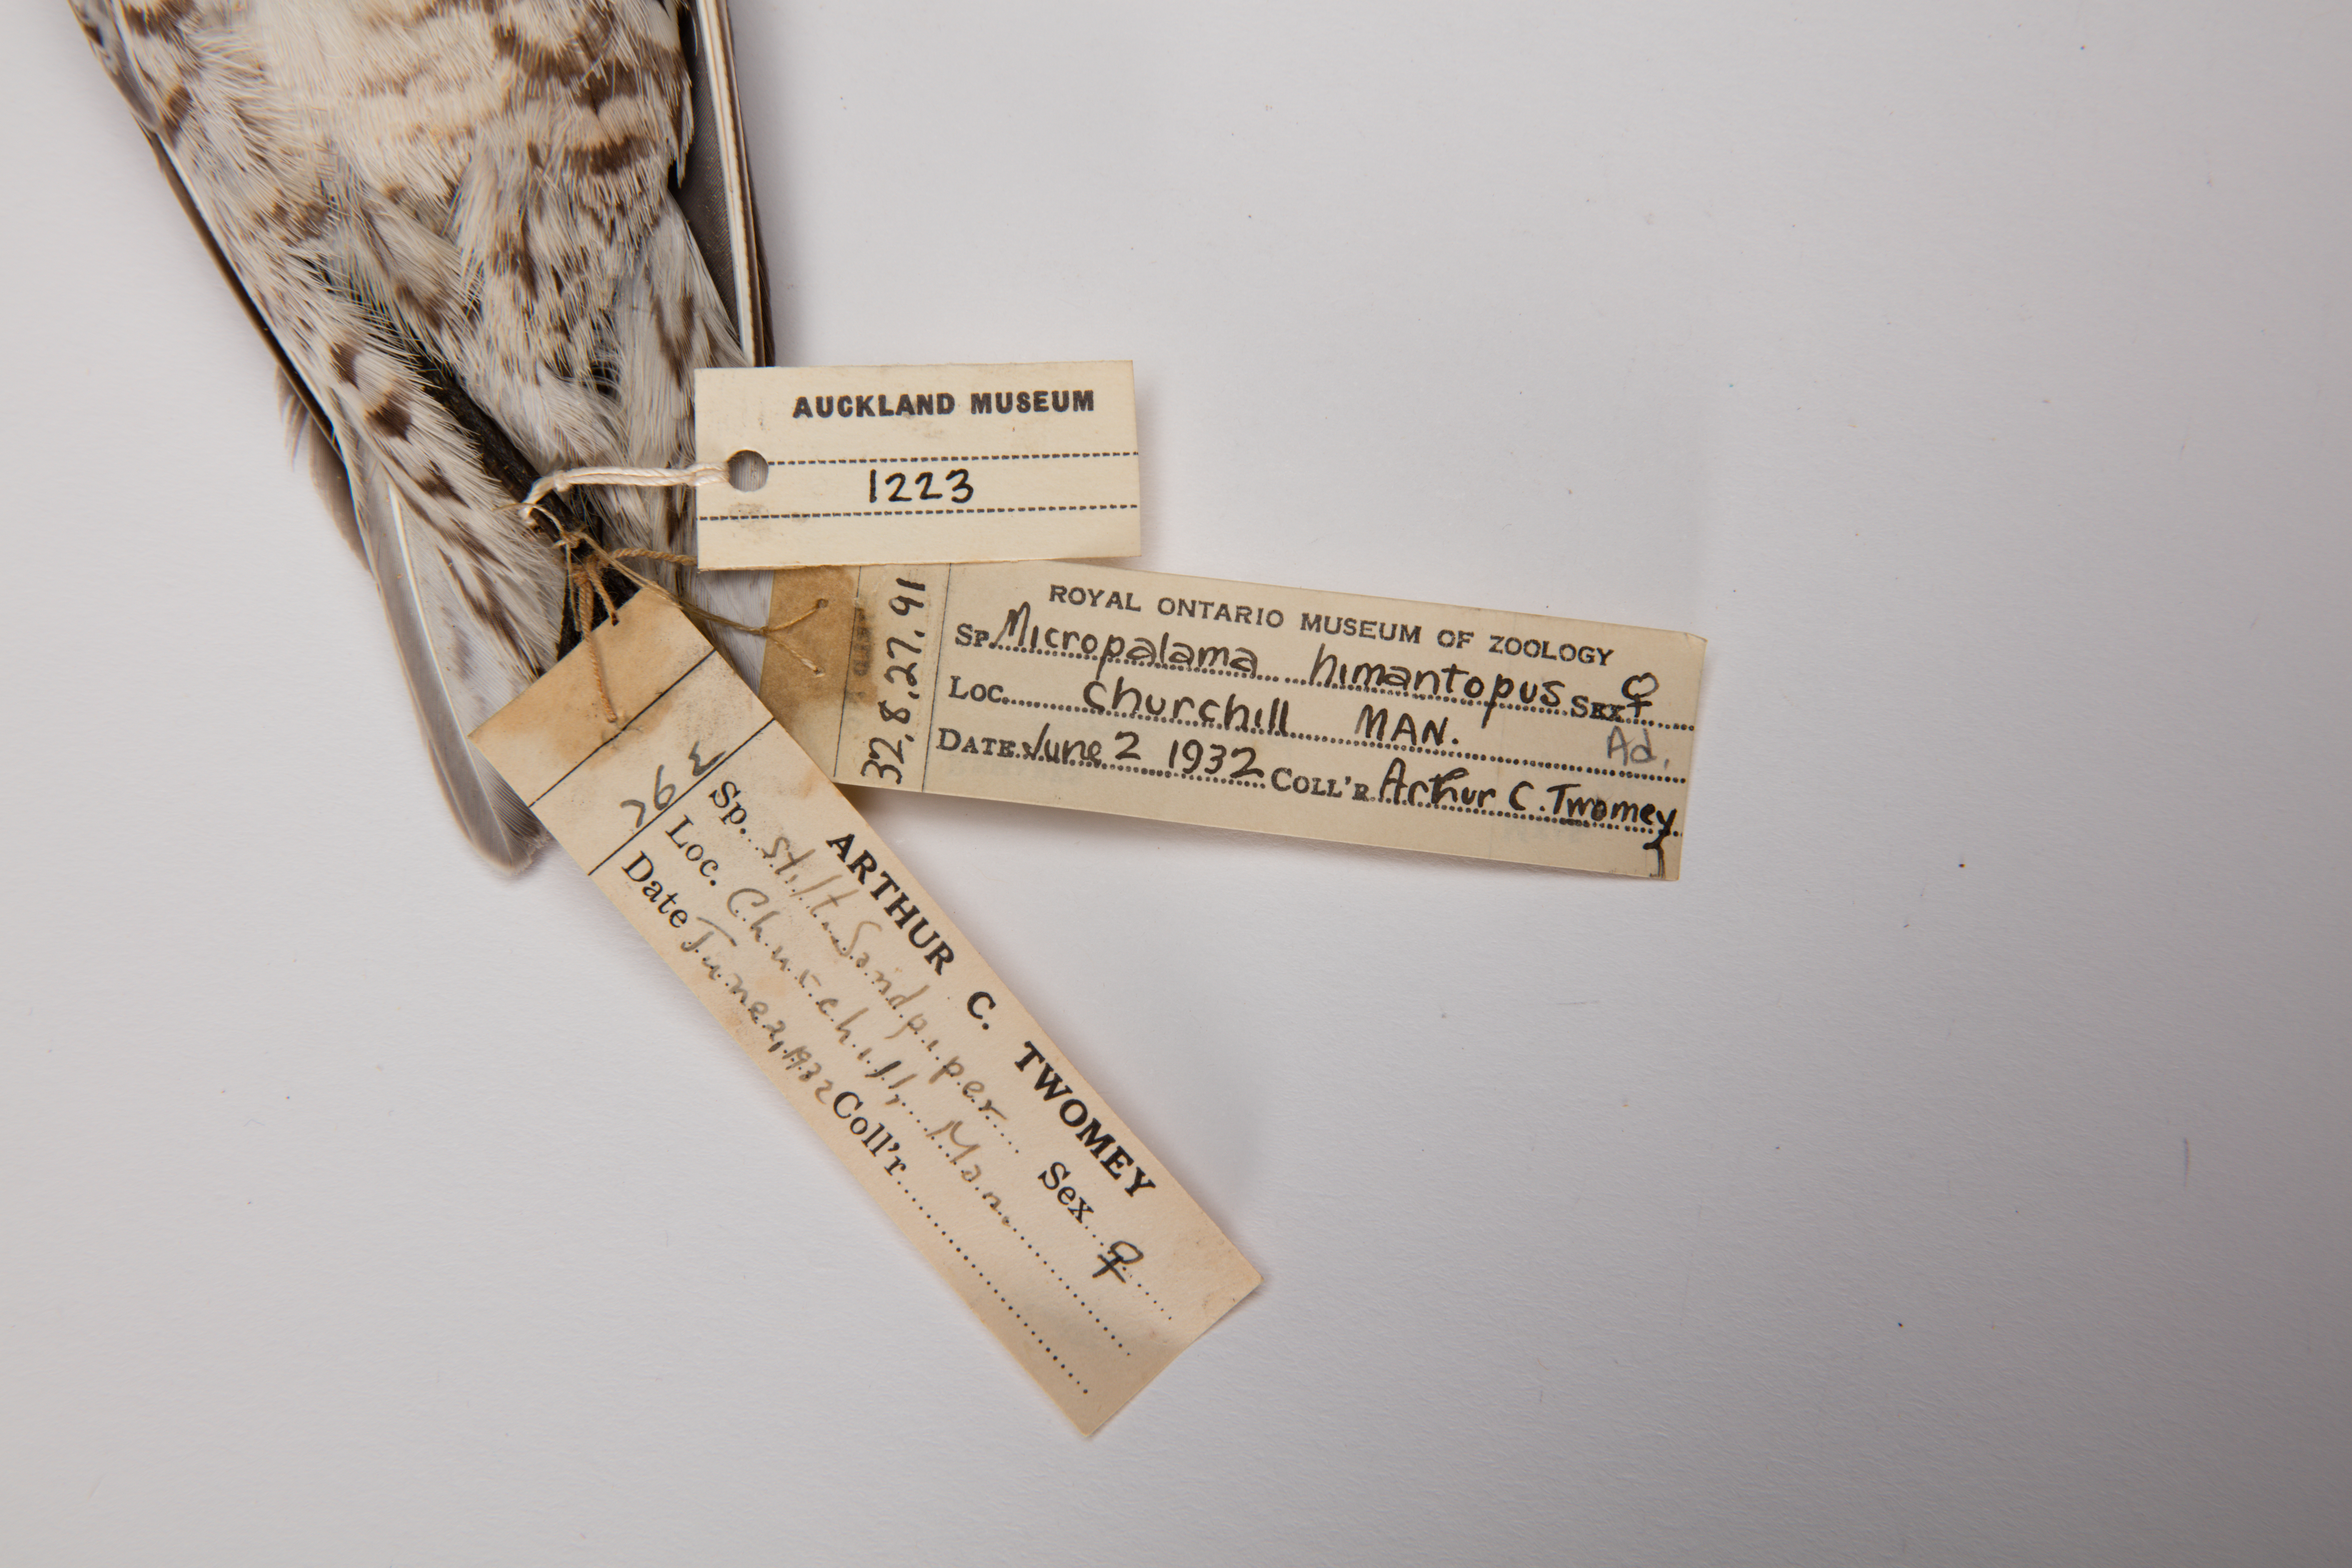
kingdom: Animalia
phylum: Chordata
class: Aves
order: Charadriiformes
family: Scolopacidae
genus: Calidris
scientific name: Calidris himantopus
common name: Stilt sandpiper
